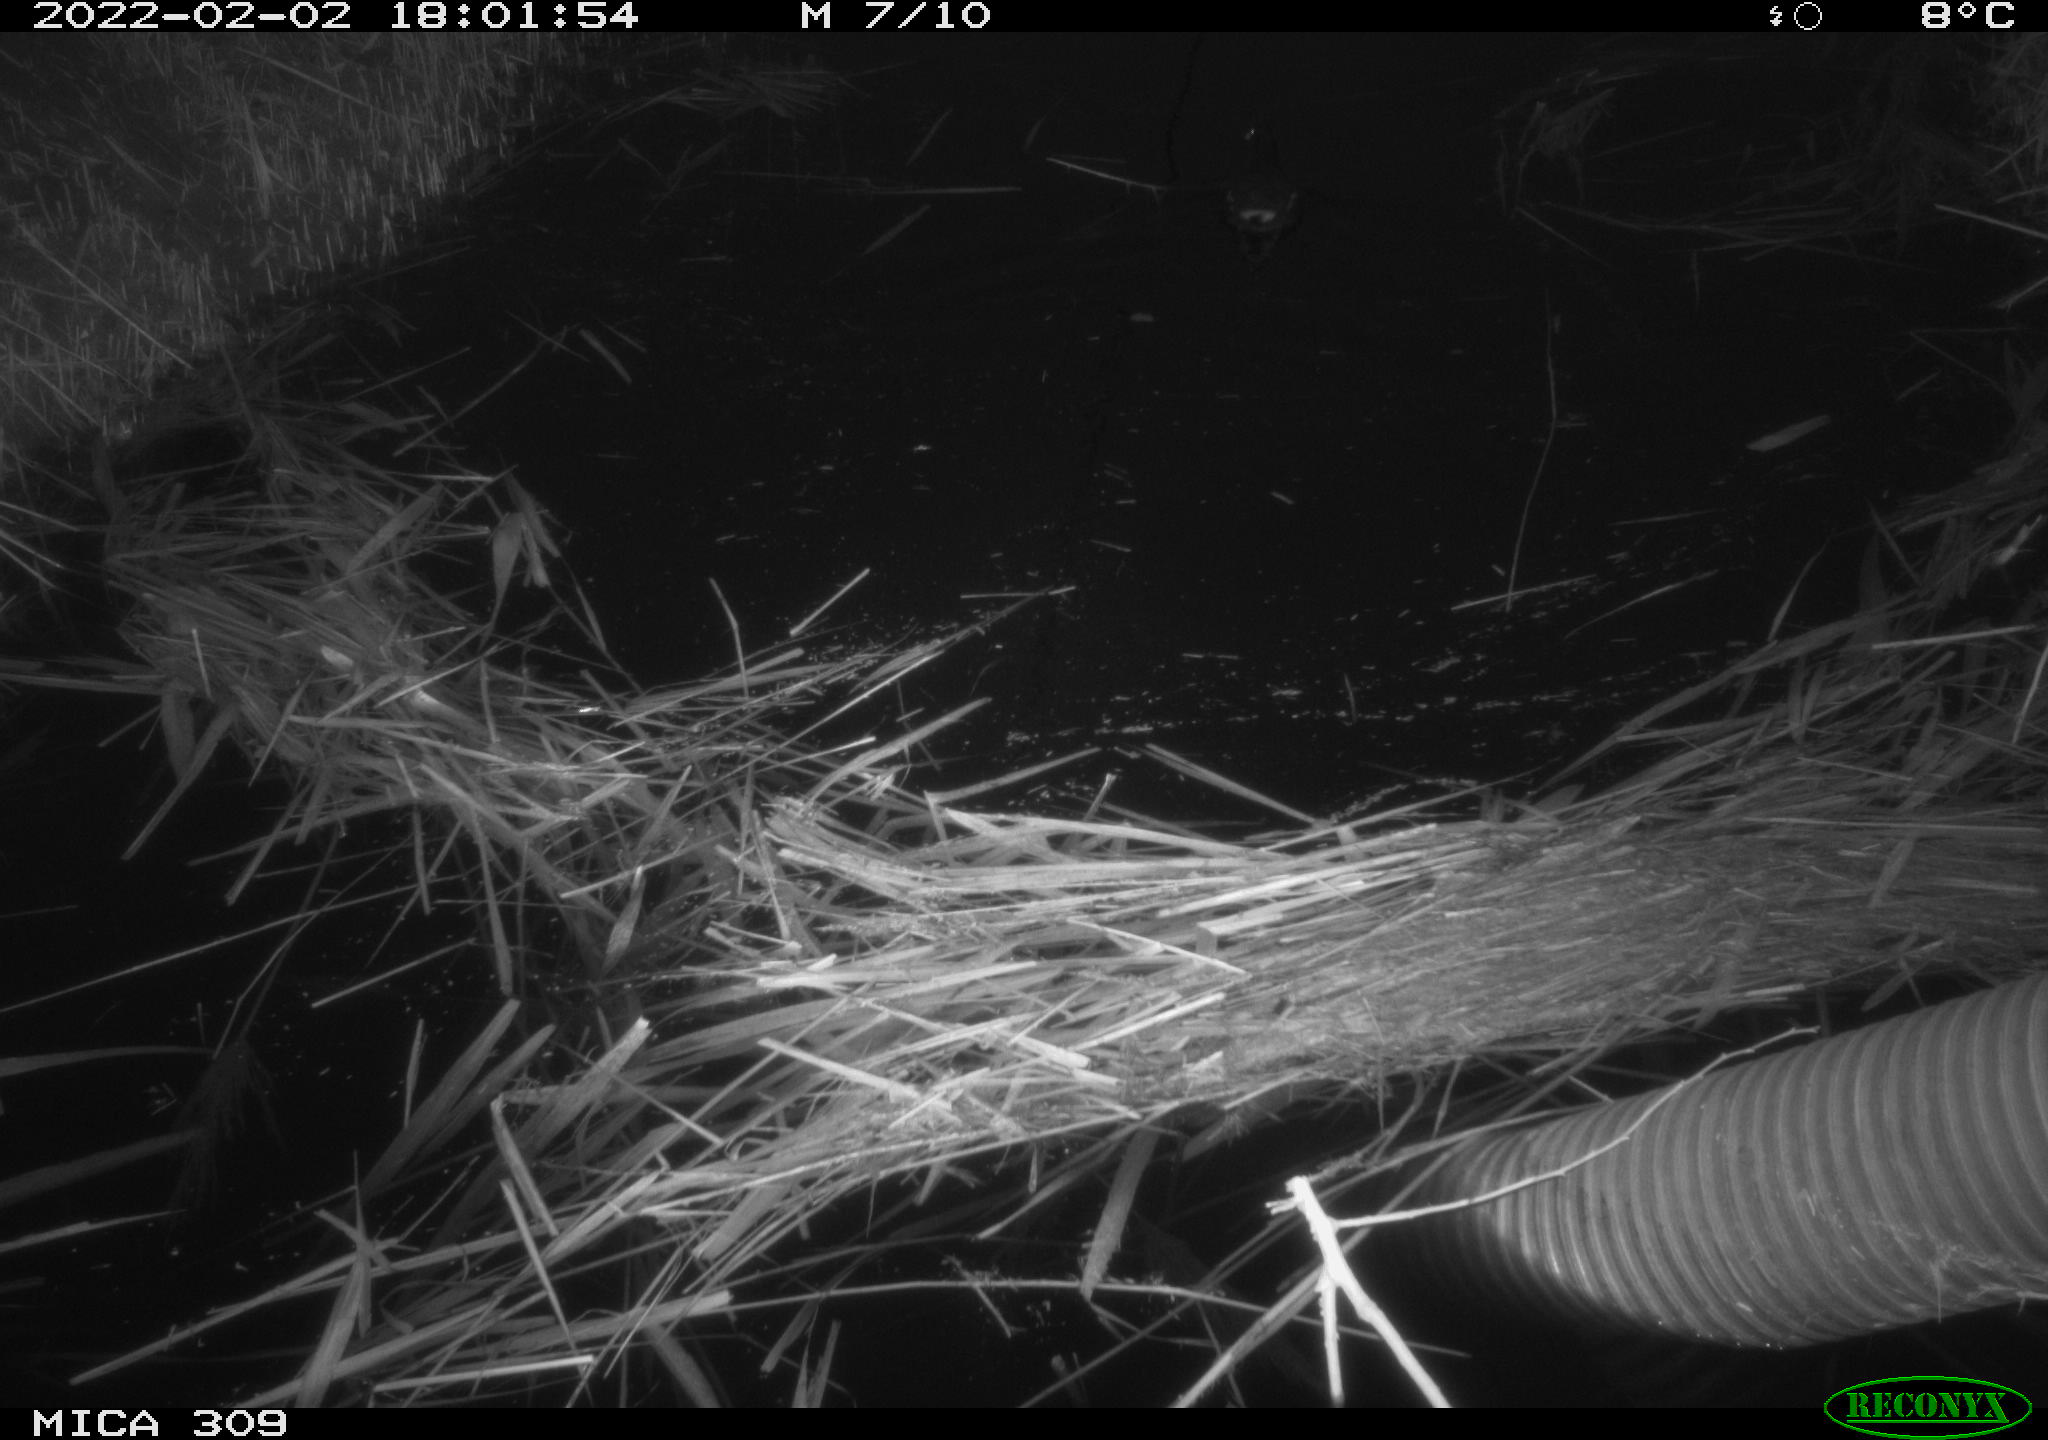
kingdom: Animalia
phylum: Chordata
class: Aves
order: Gruiformes
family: Rallidae
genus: Gallinula
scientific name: Gallinula chloropus
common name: Common moorhen
